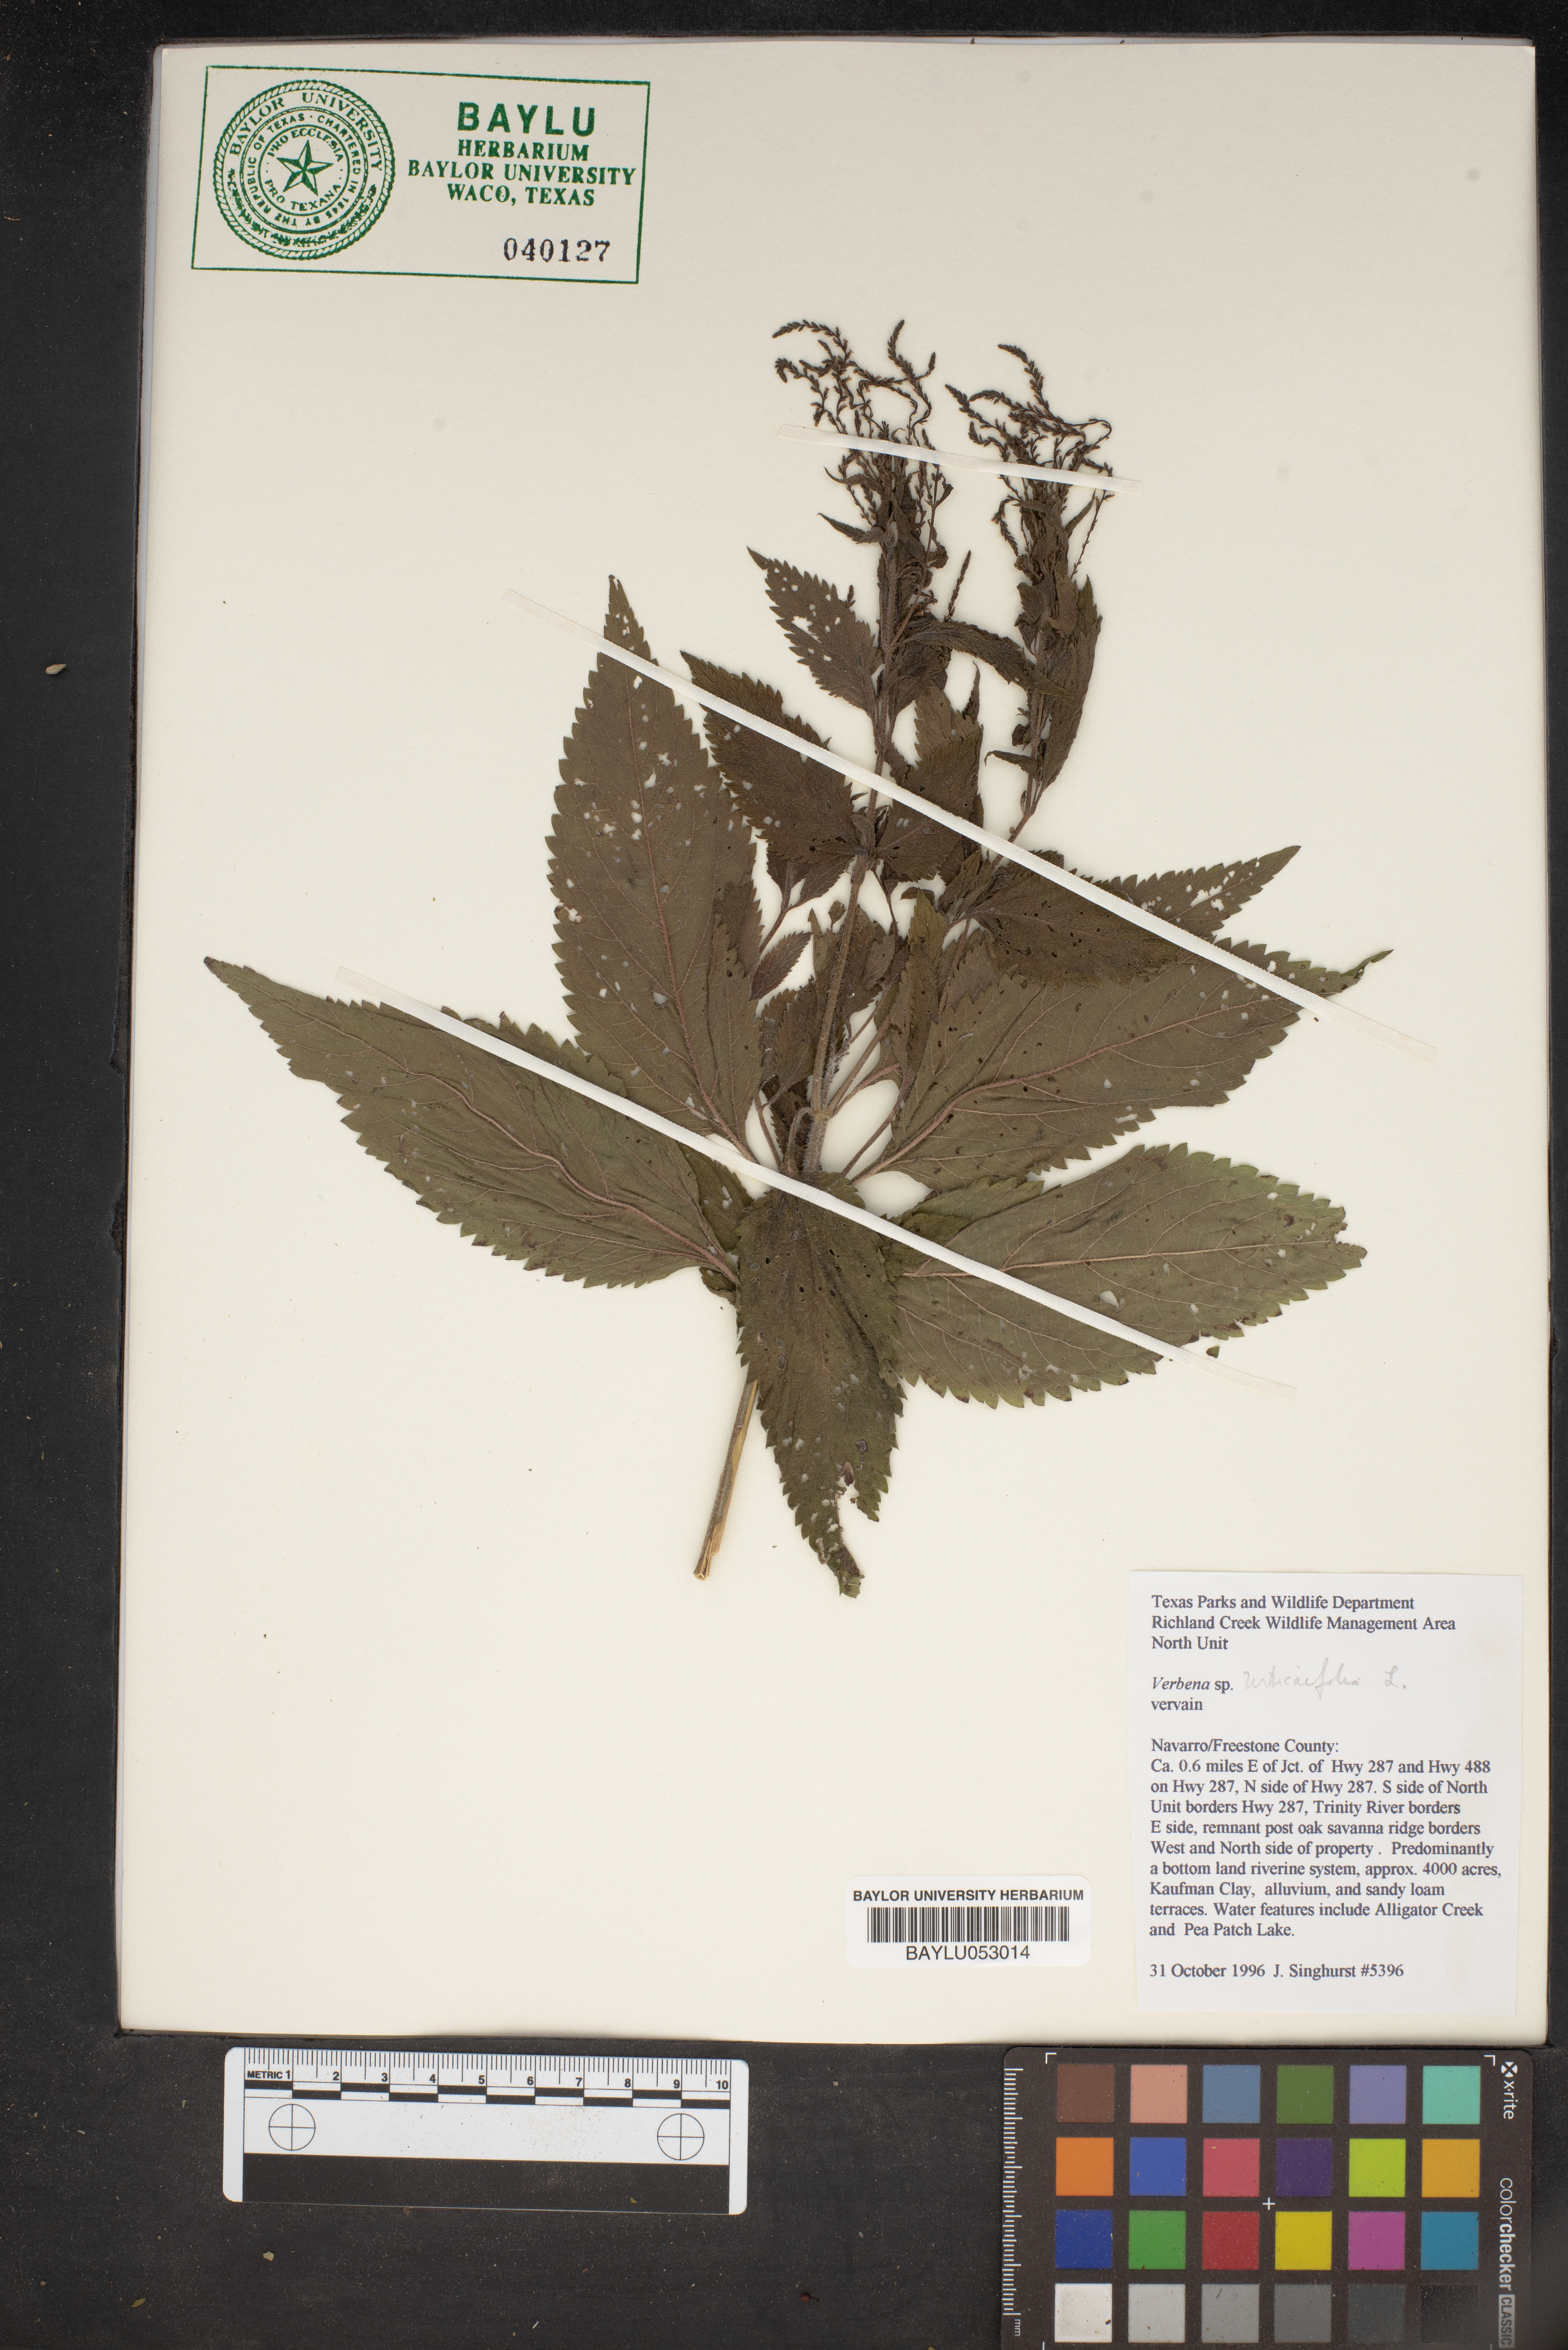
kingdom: Plantae
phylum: Tracheophyta
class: Magnoliopsida
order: Lamiales
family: Verbenaceae
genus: Verbena
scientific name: Verbena urticifolia
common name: Nettle-leaved vervain
